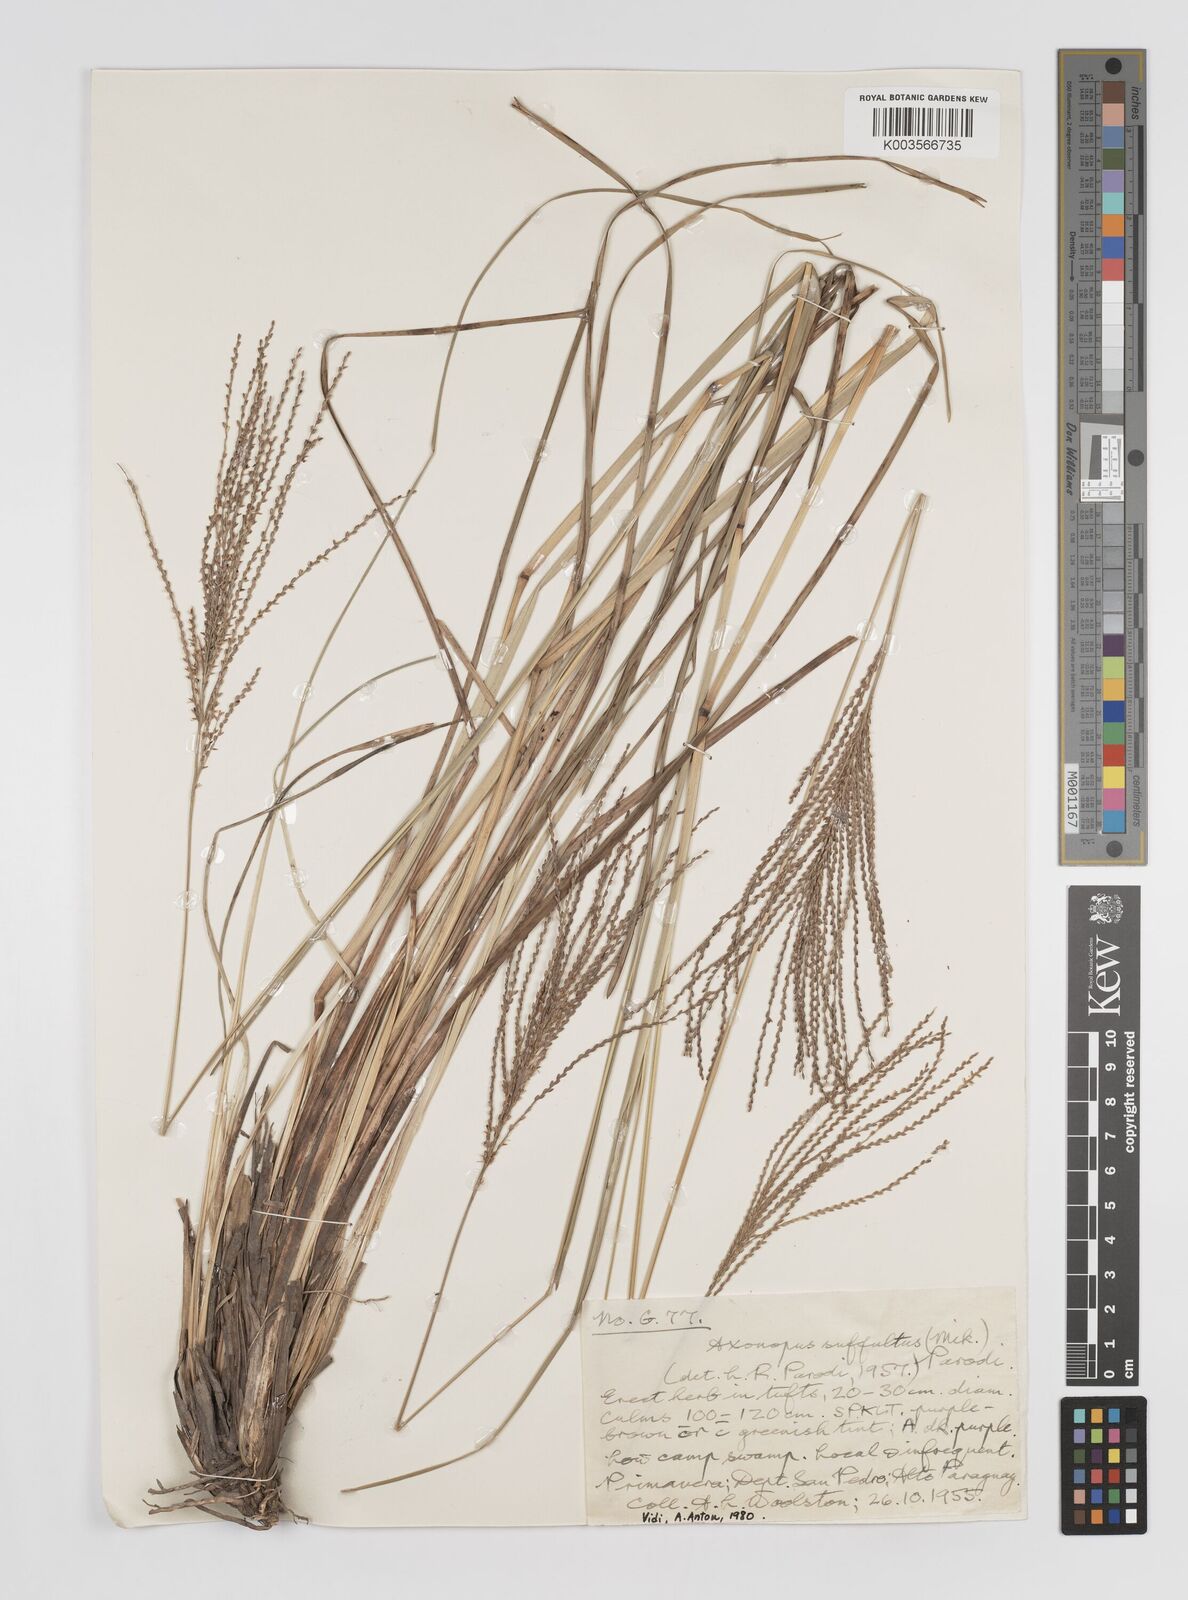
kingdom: Plantae
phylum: Tracheophyta
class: Liliopsida
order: Poales
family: Poaceae
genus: Axonopus
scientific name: Axonopus suffultus
